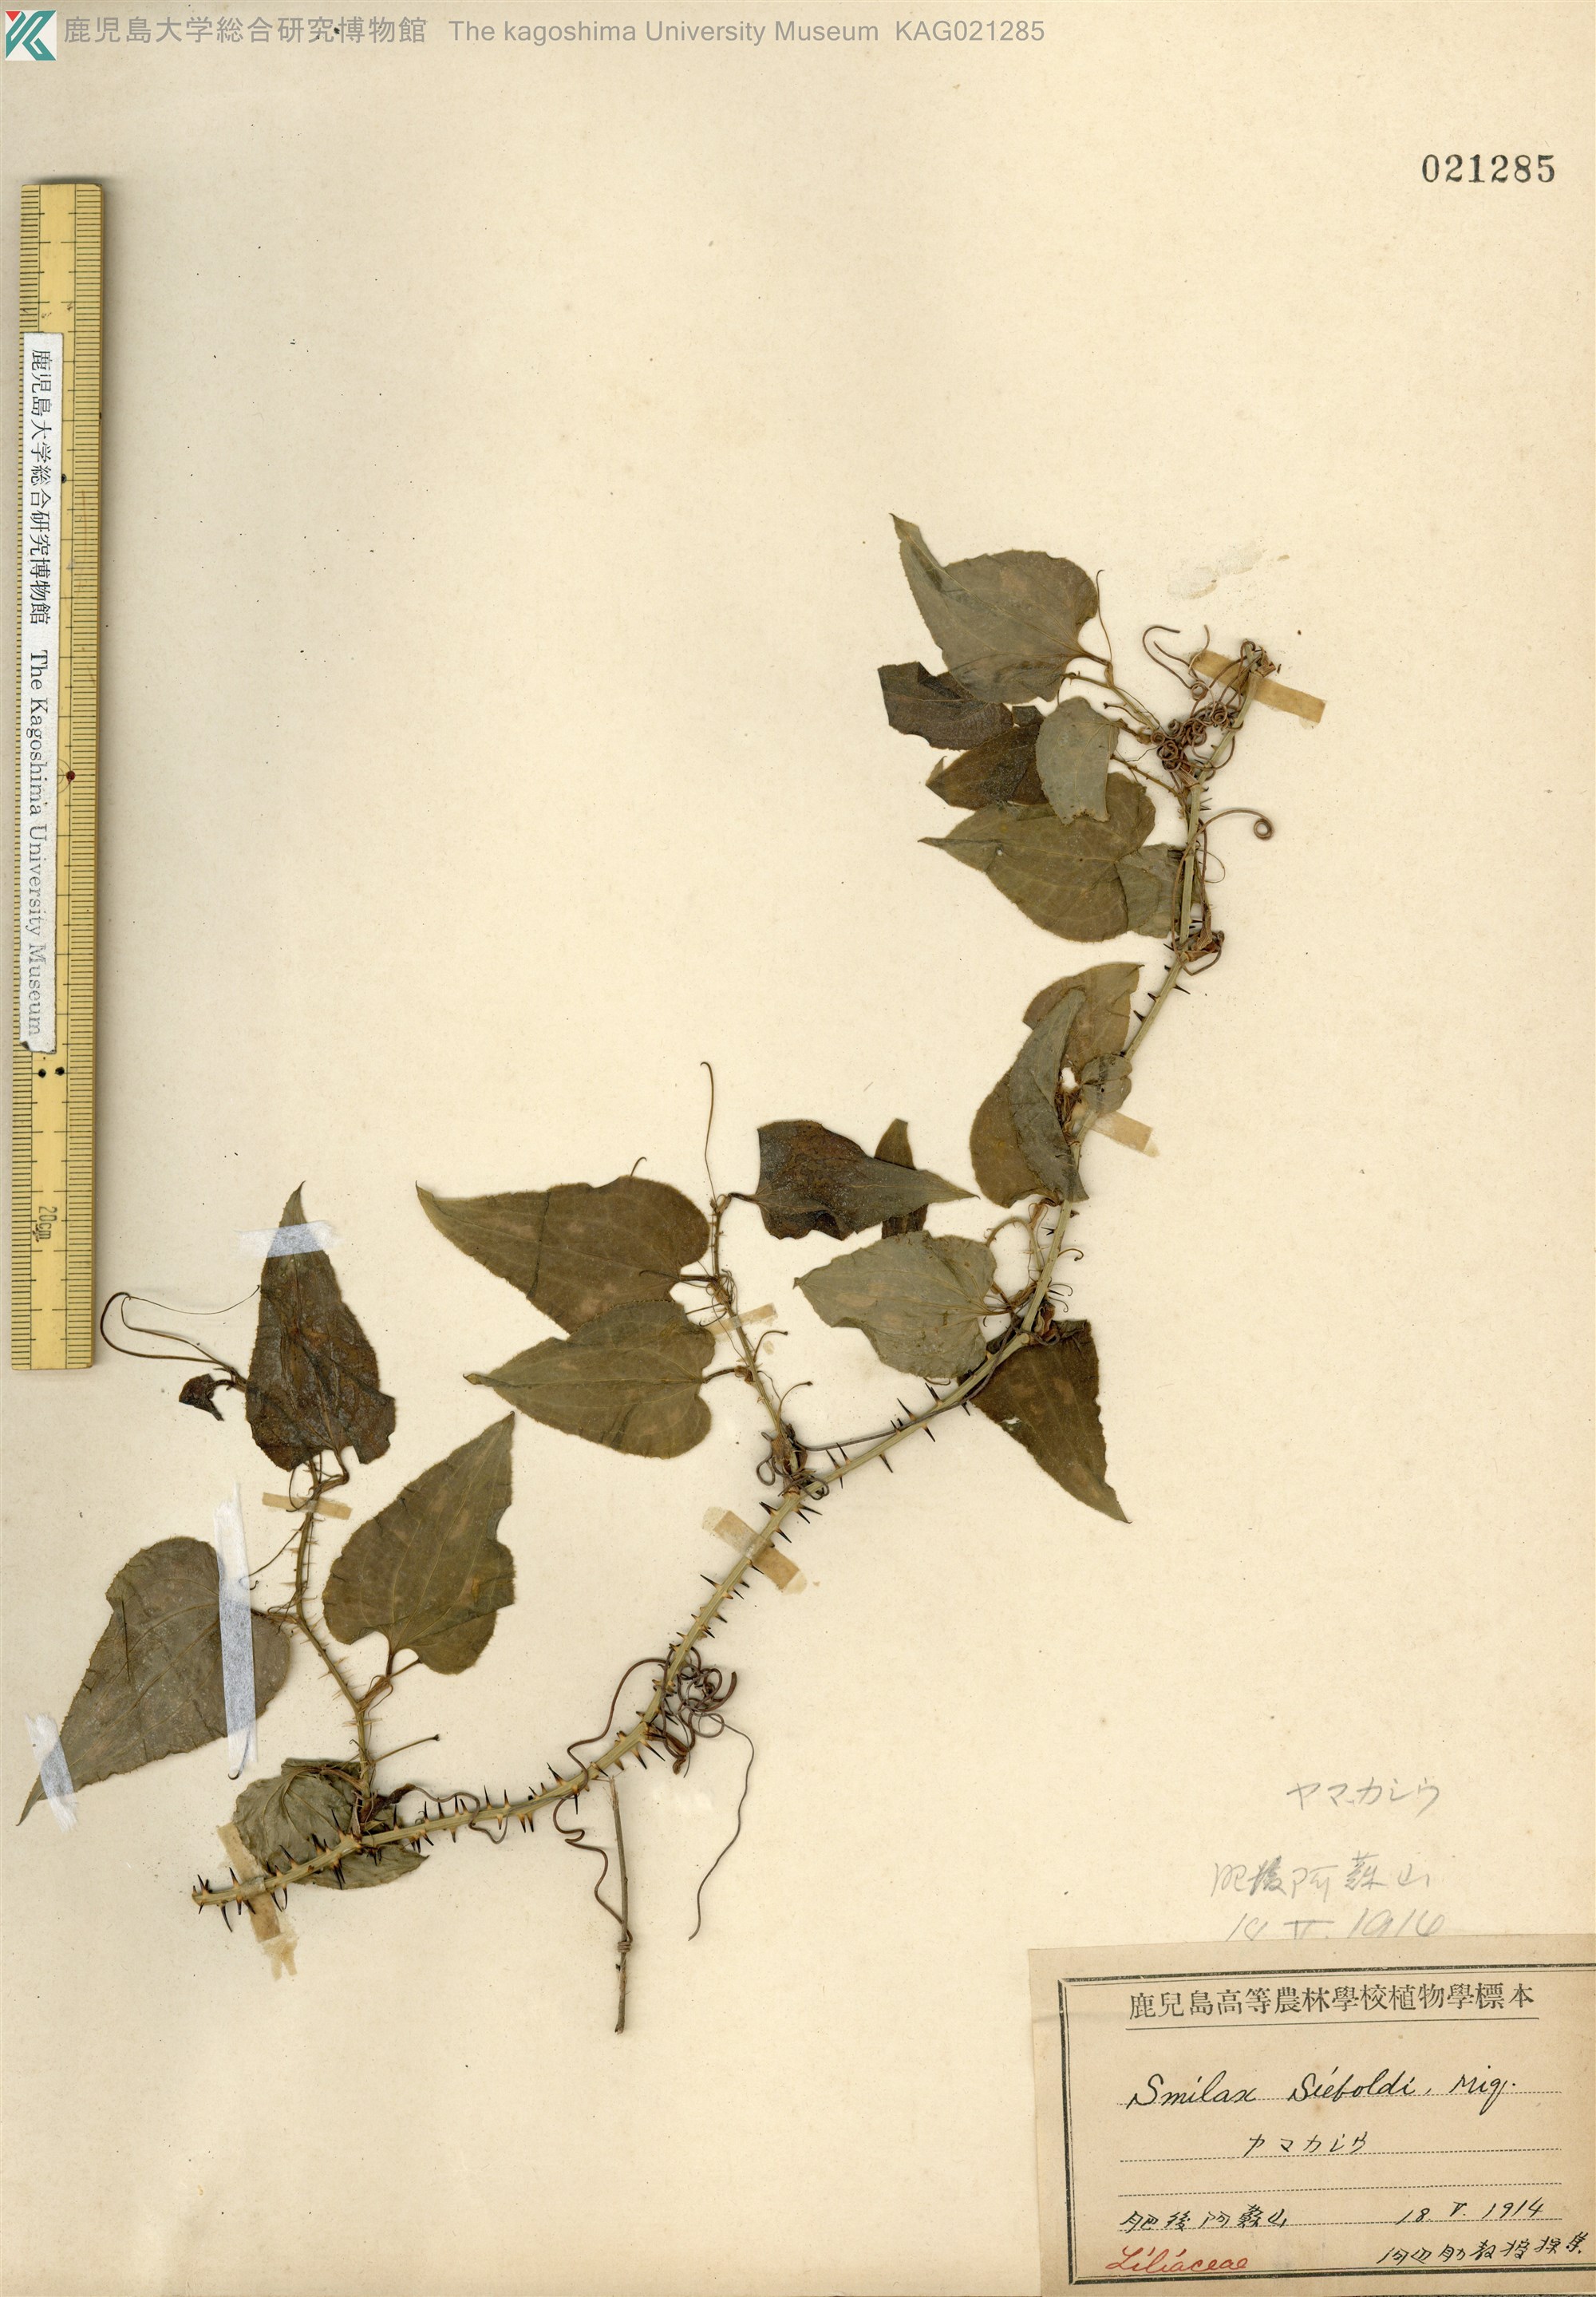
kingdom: Plantae
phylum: Tracheophyta
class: Liliopsida
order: Liliales
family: Smilacaceae
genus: Smilax
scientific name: Smilax sieboldii
